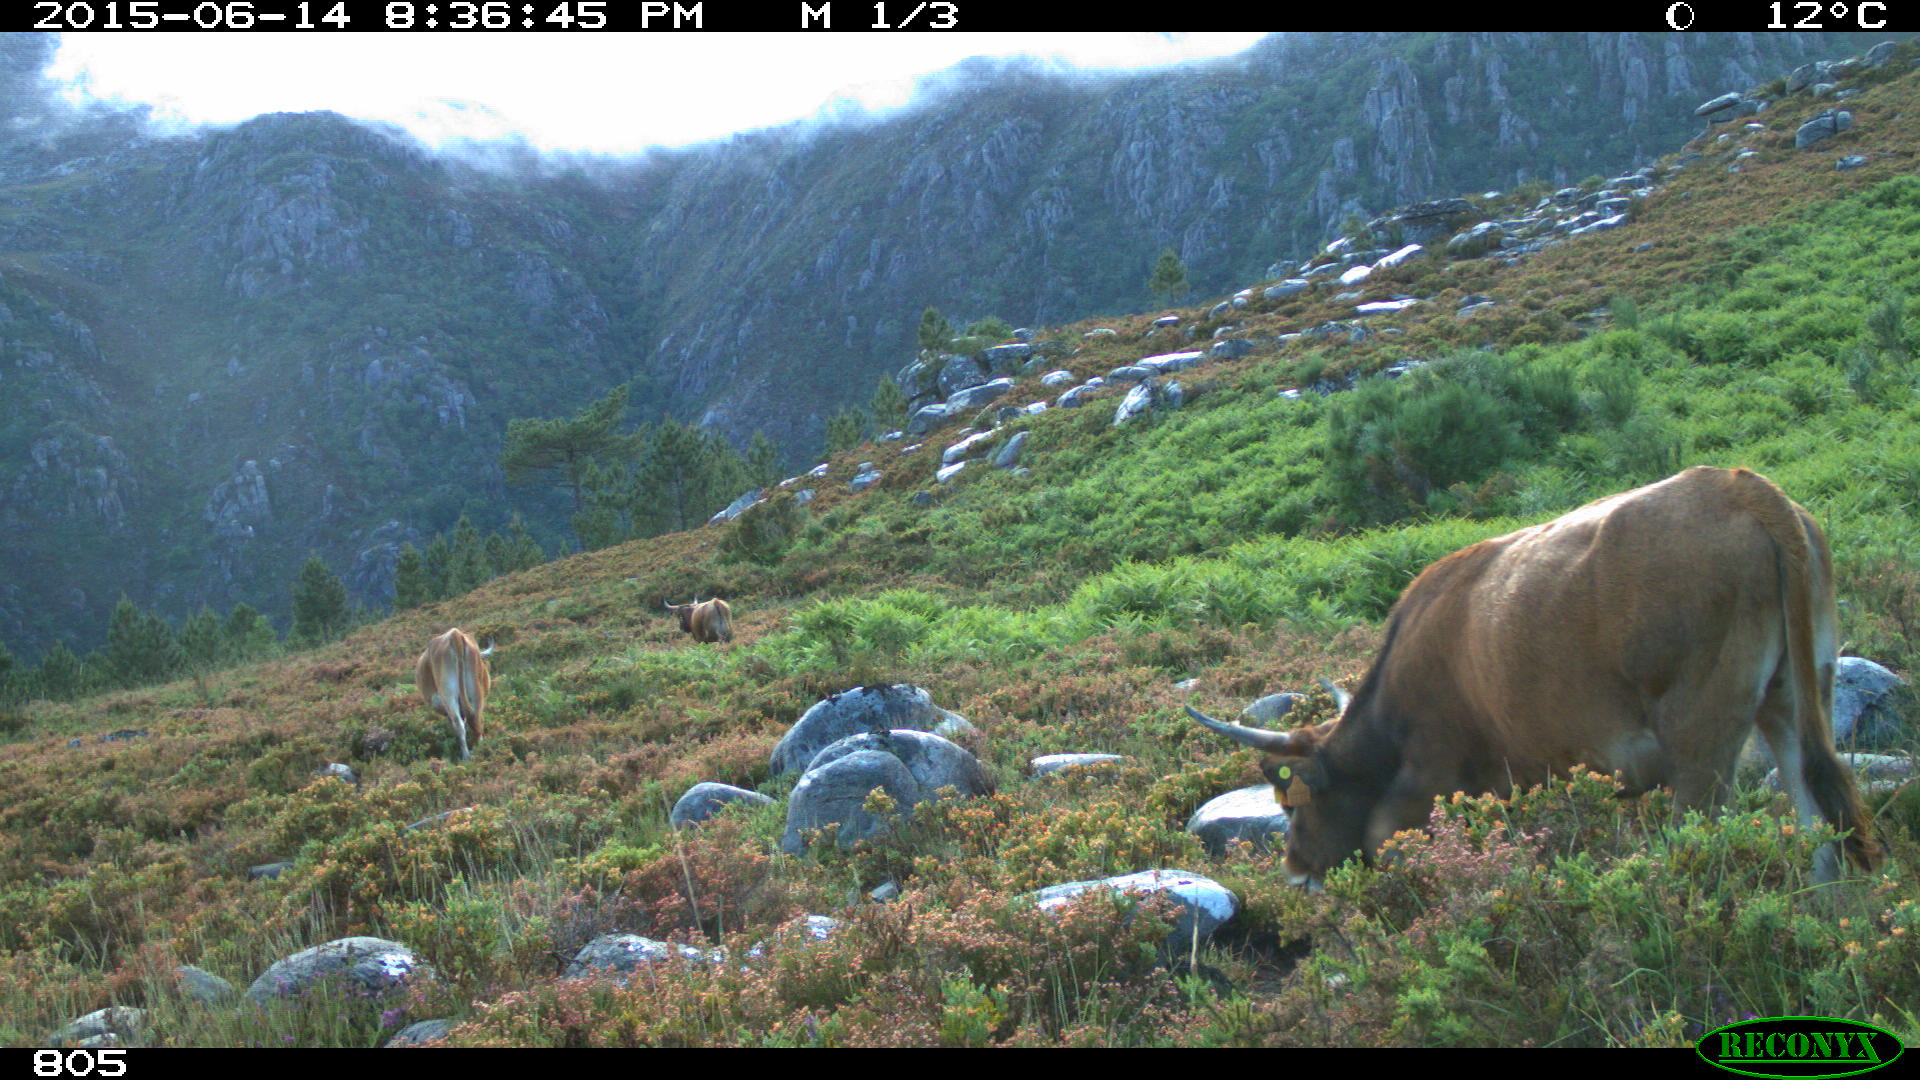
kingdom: Animalia
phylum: Chordata
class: Mammalia
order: Artiodactyla
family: Bovidae
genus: Bos
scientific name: Bos taurus
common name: Domesticated cattle
